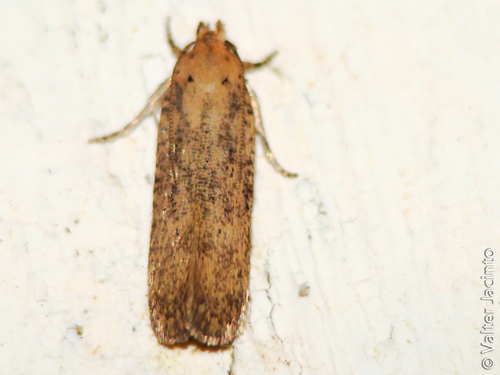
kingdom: Animalia
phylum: Arthropoda
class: Insecta
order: Lepidoptera
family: Gelechiidae
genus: Platyedra
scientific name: Platyedra subcinerea
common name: Moth
